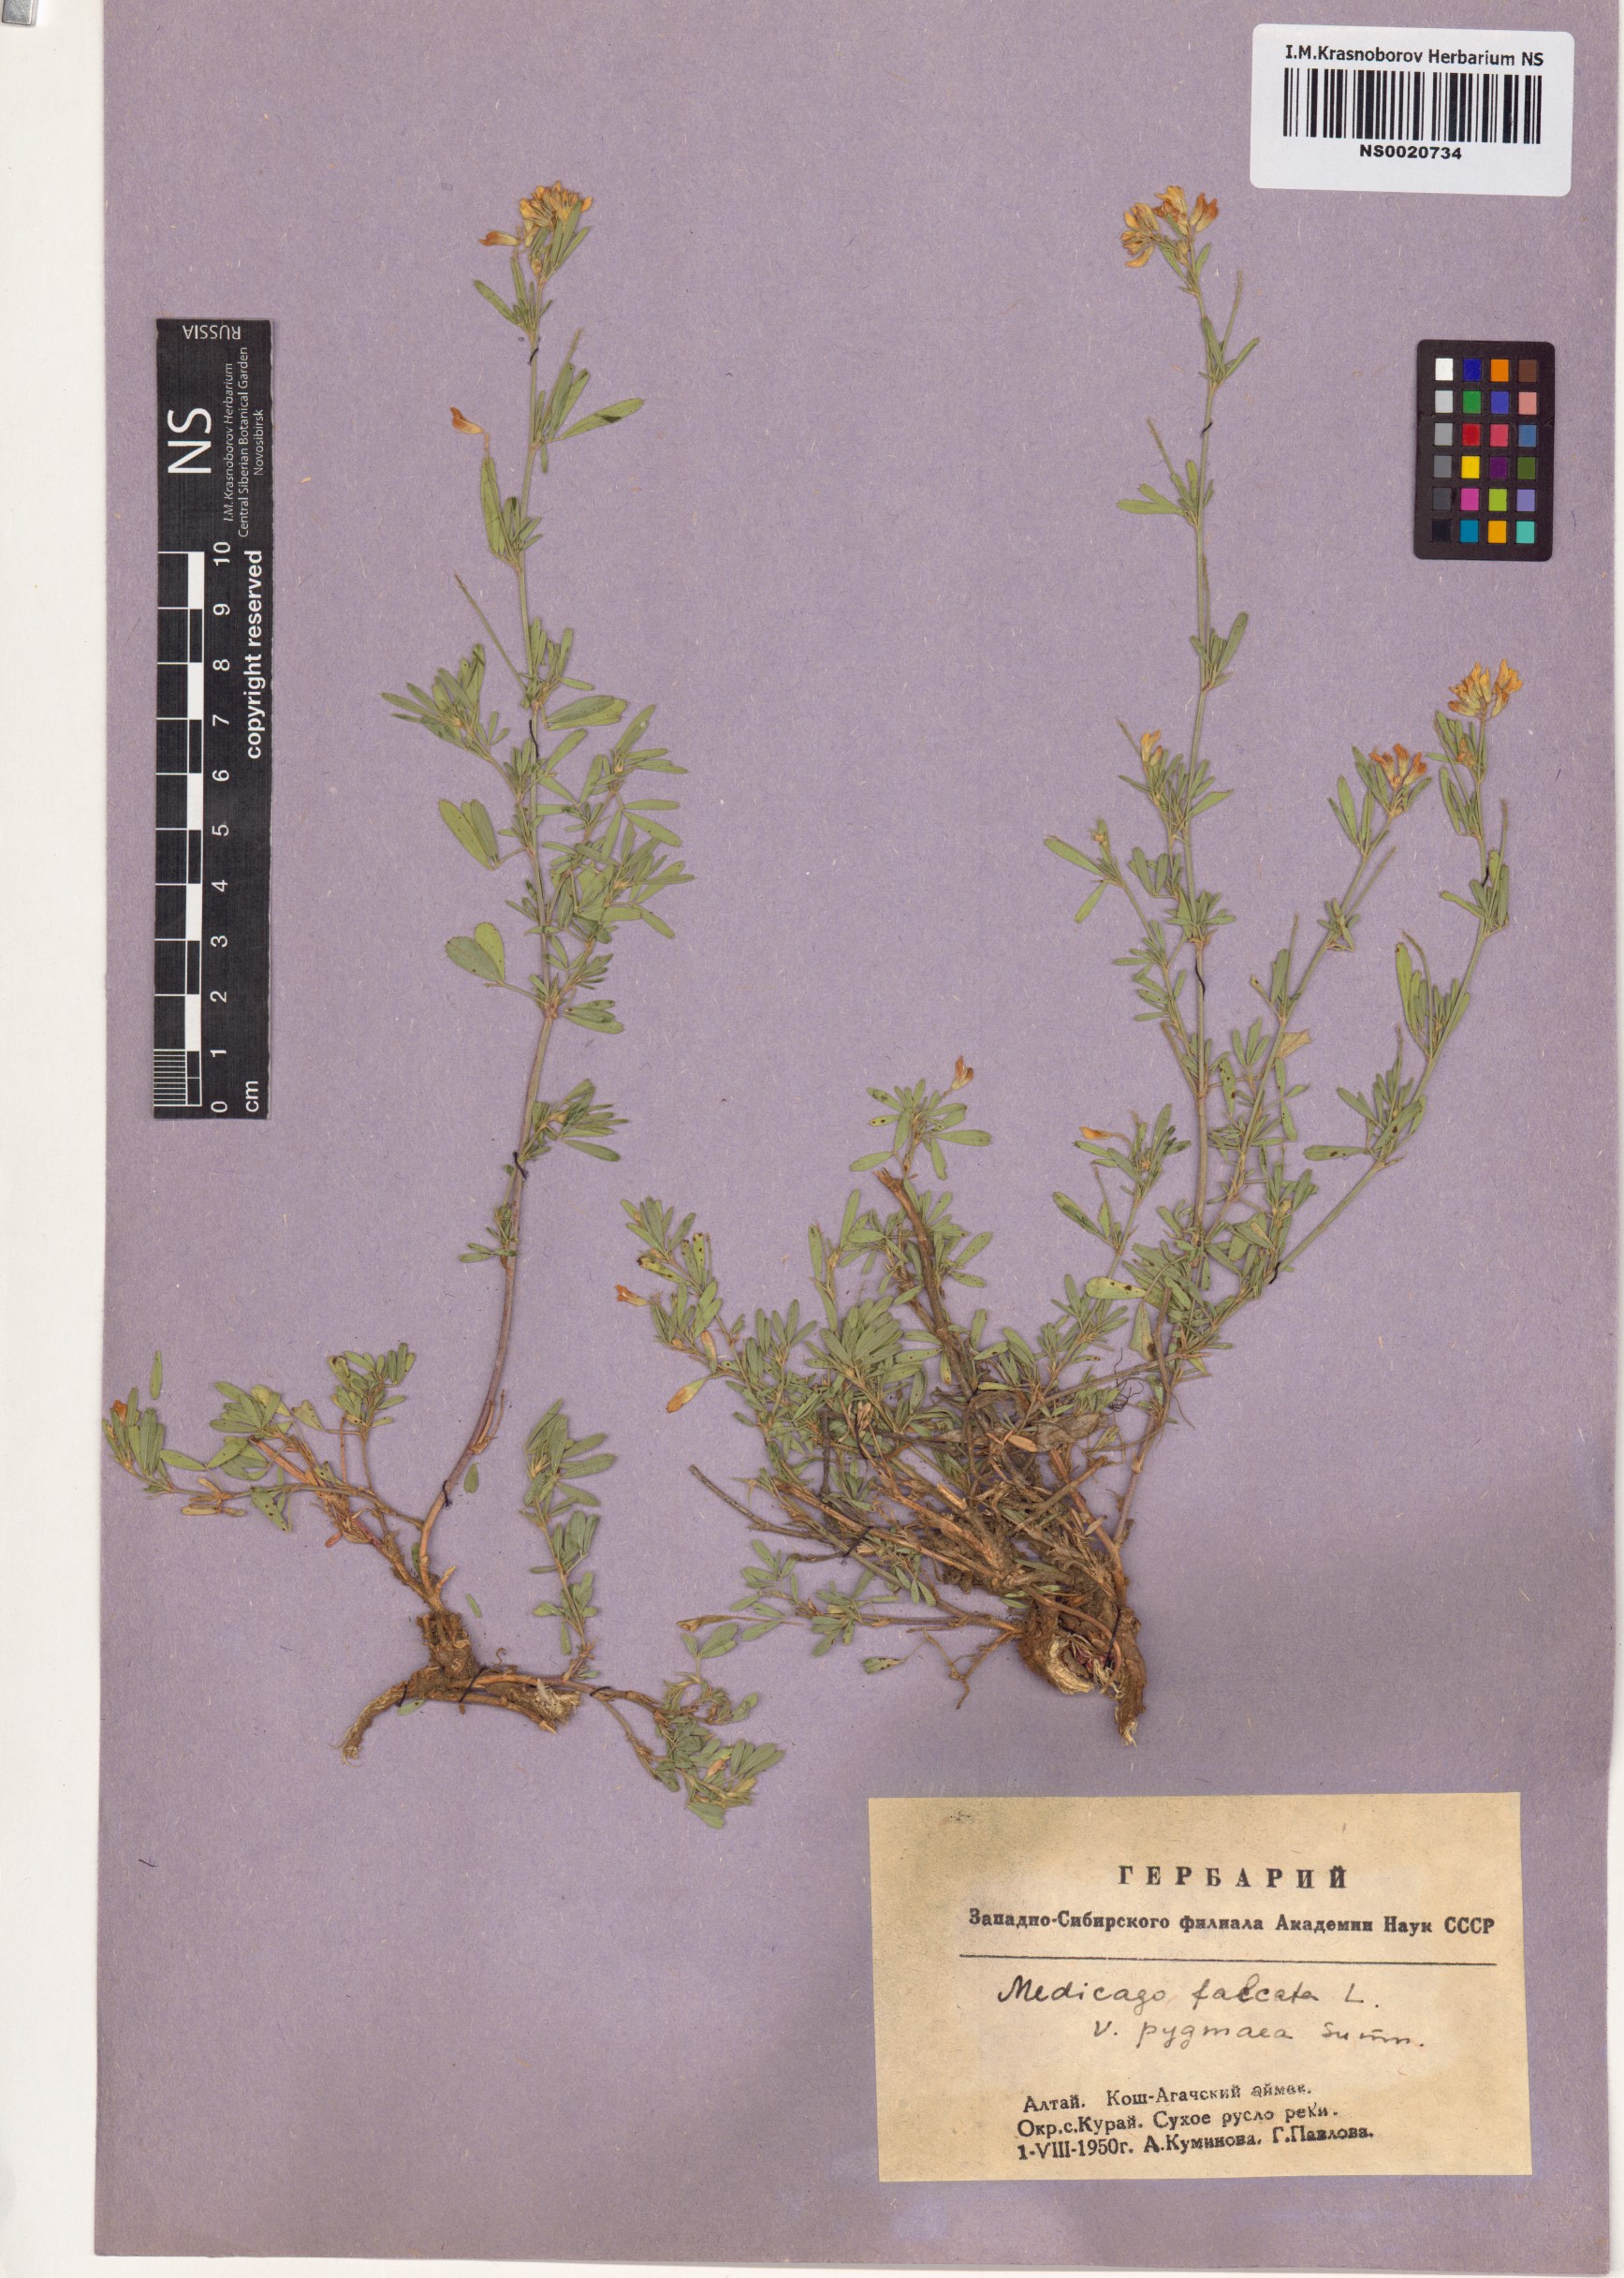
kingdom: Plantae
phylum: Tracheophyta
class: Magnoliopsida
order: Fabales
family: Fabaceae
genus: Medicago
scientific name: Medicago falcata
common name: Sickle medick
